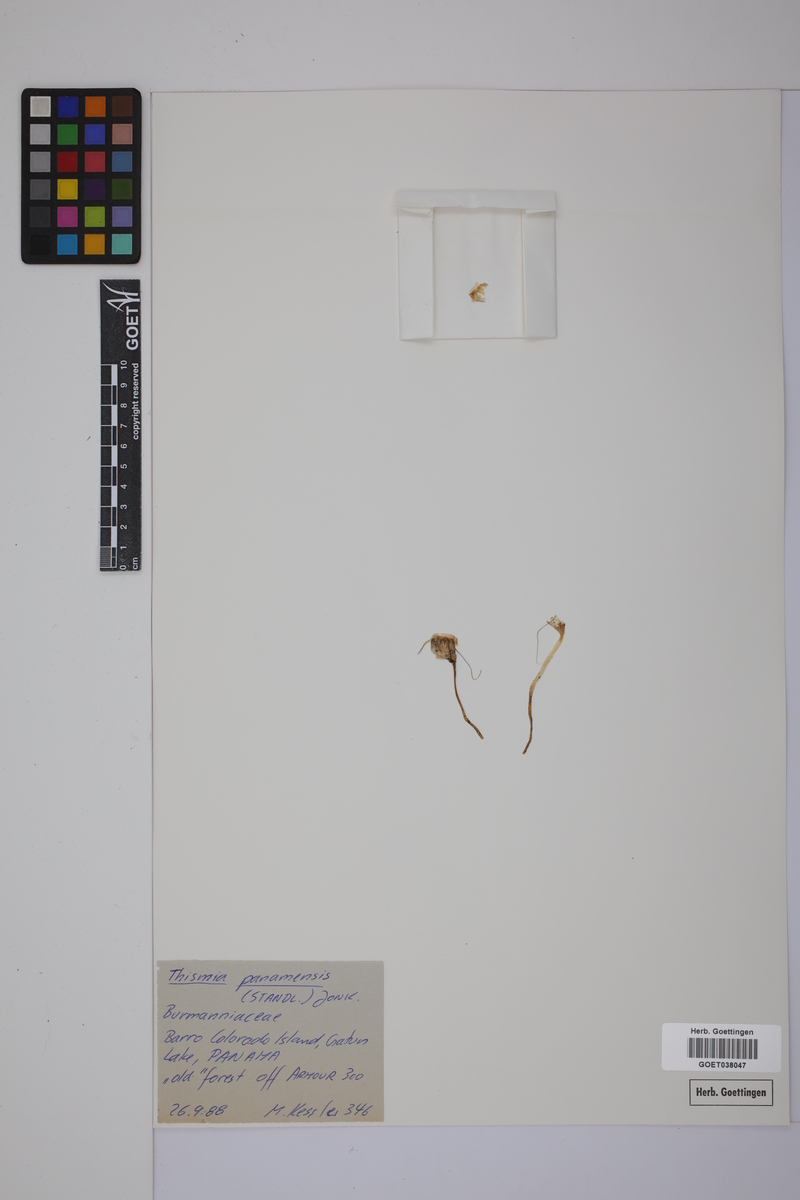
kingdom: Plantae
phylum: Tracheophyta
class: Liliopsida
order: Dioscoreales
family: Burmanniaceae
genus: Thismia
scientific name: Thismia panamensis
